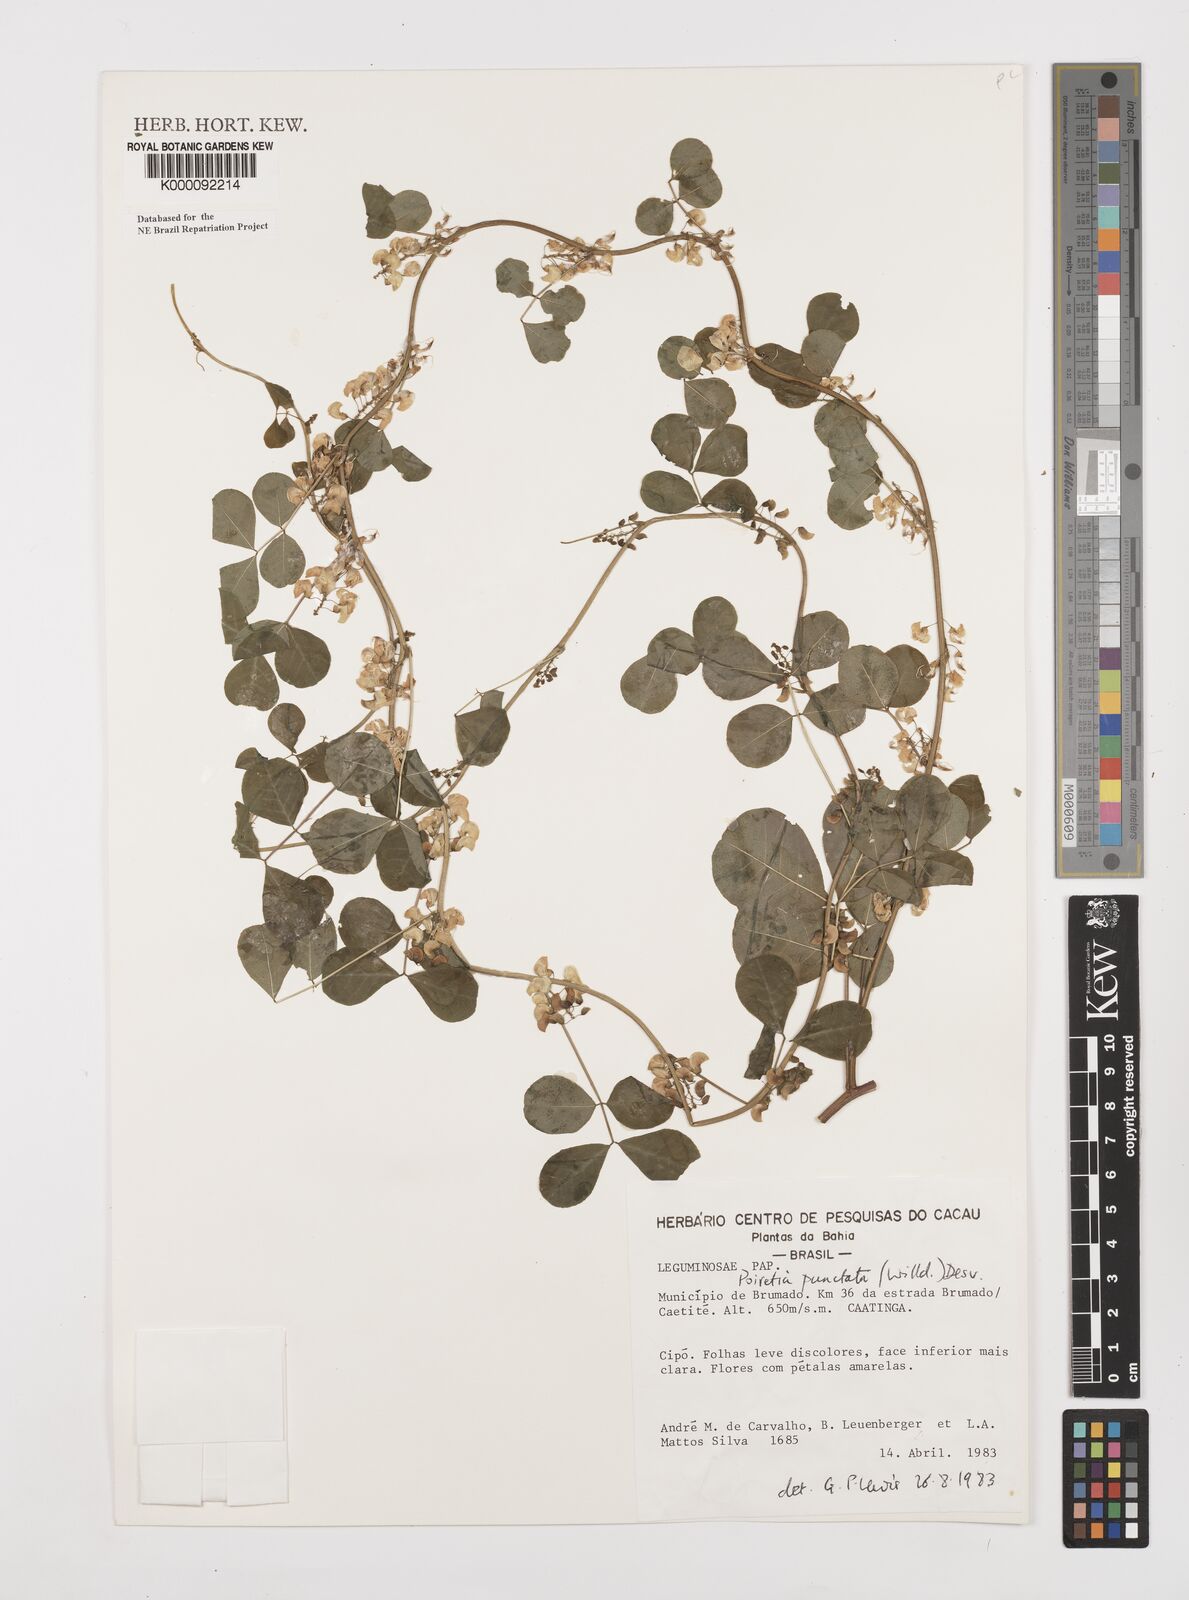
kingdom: Plantae
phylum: Tracheophyta
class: Magnoliopsida
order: Fabales
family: Fabaceae
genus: Poiretia
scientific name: Poiretia punctata
